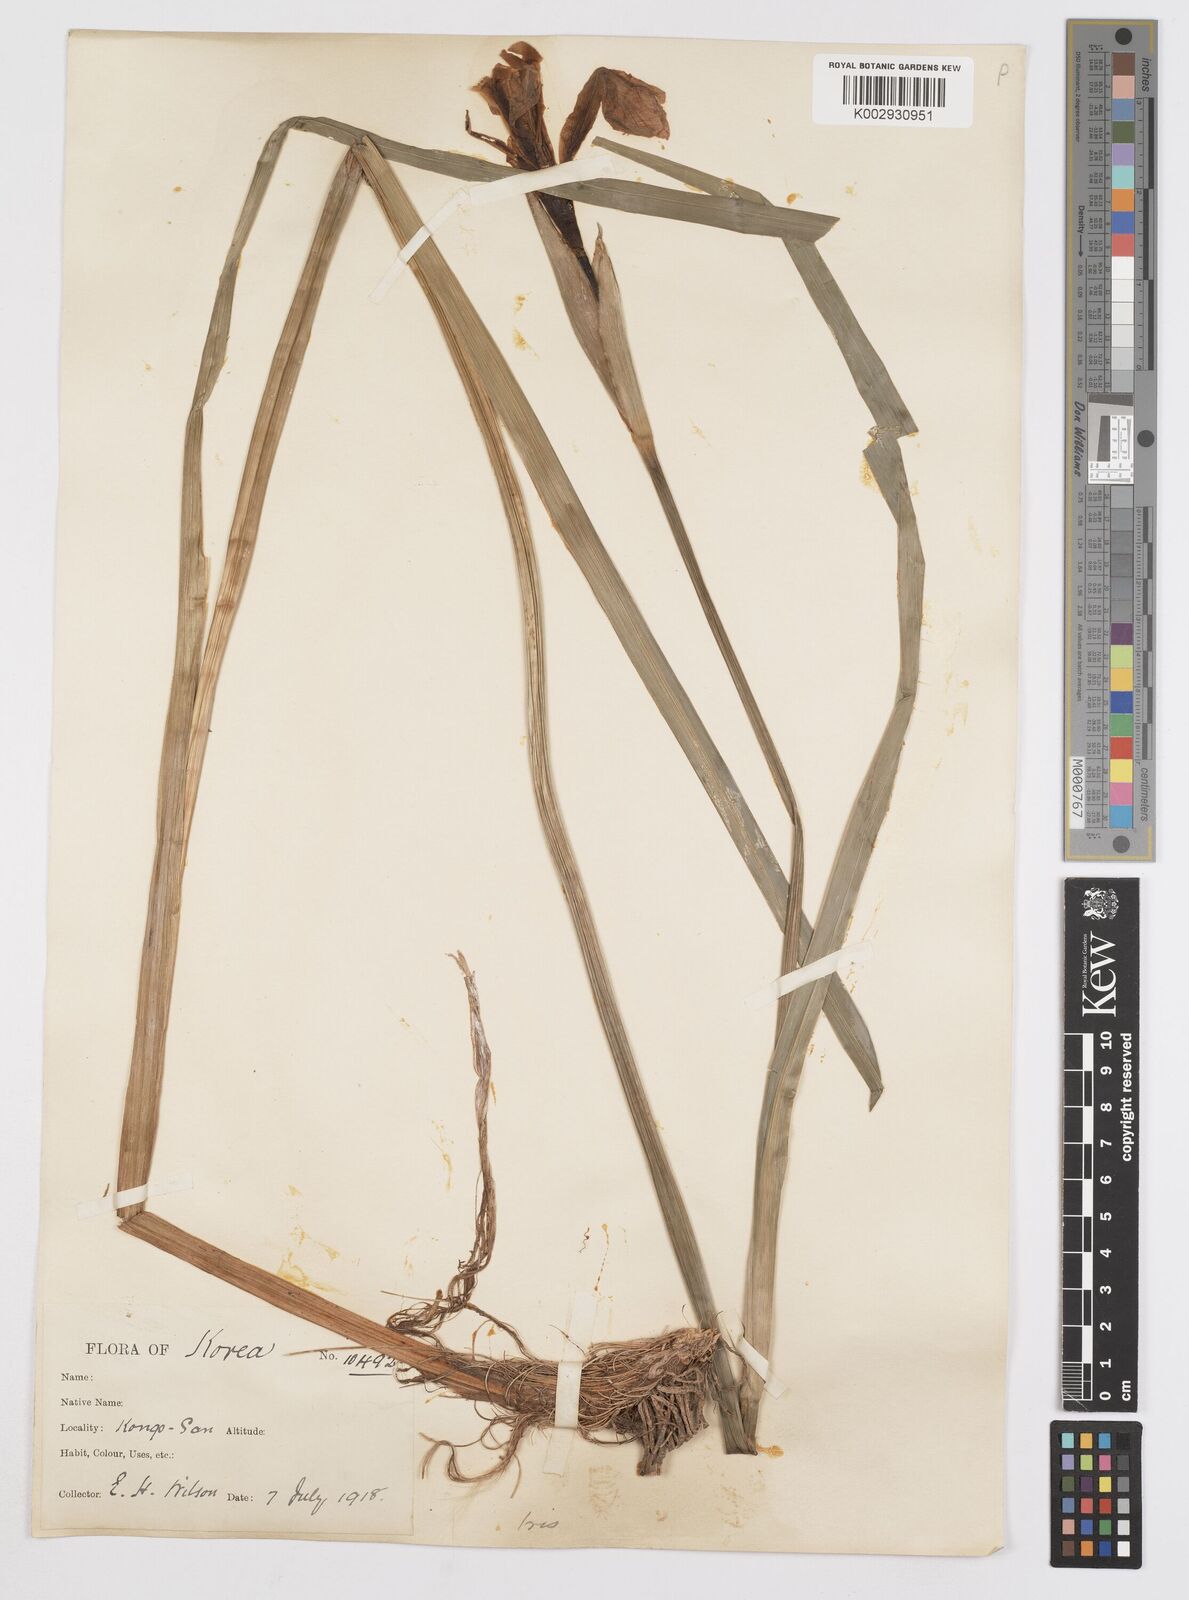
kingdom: Plantae
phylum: Tracheophyta
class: Liliopsida
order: Asparagales
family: Iridaceae
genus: Iris
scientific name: Iris
